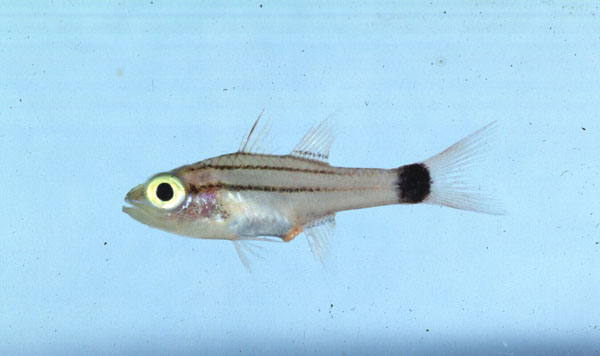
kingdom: Animalia
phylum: Chordata
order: Perciformes
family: Apogonidae
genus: Cheilodipterus
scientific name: Cheilodipterus macrodon
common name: Eight-lined cardinalfish
